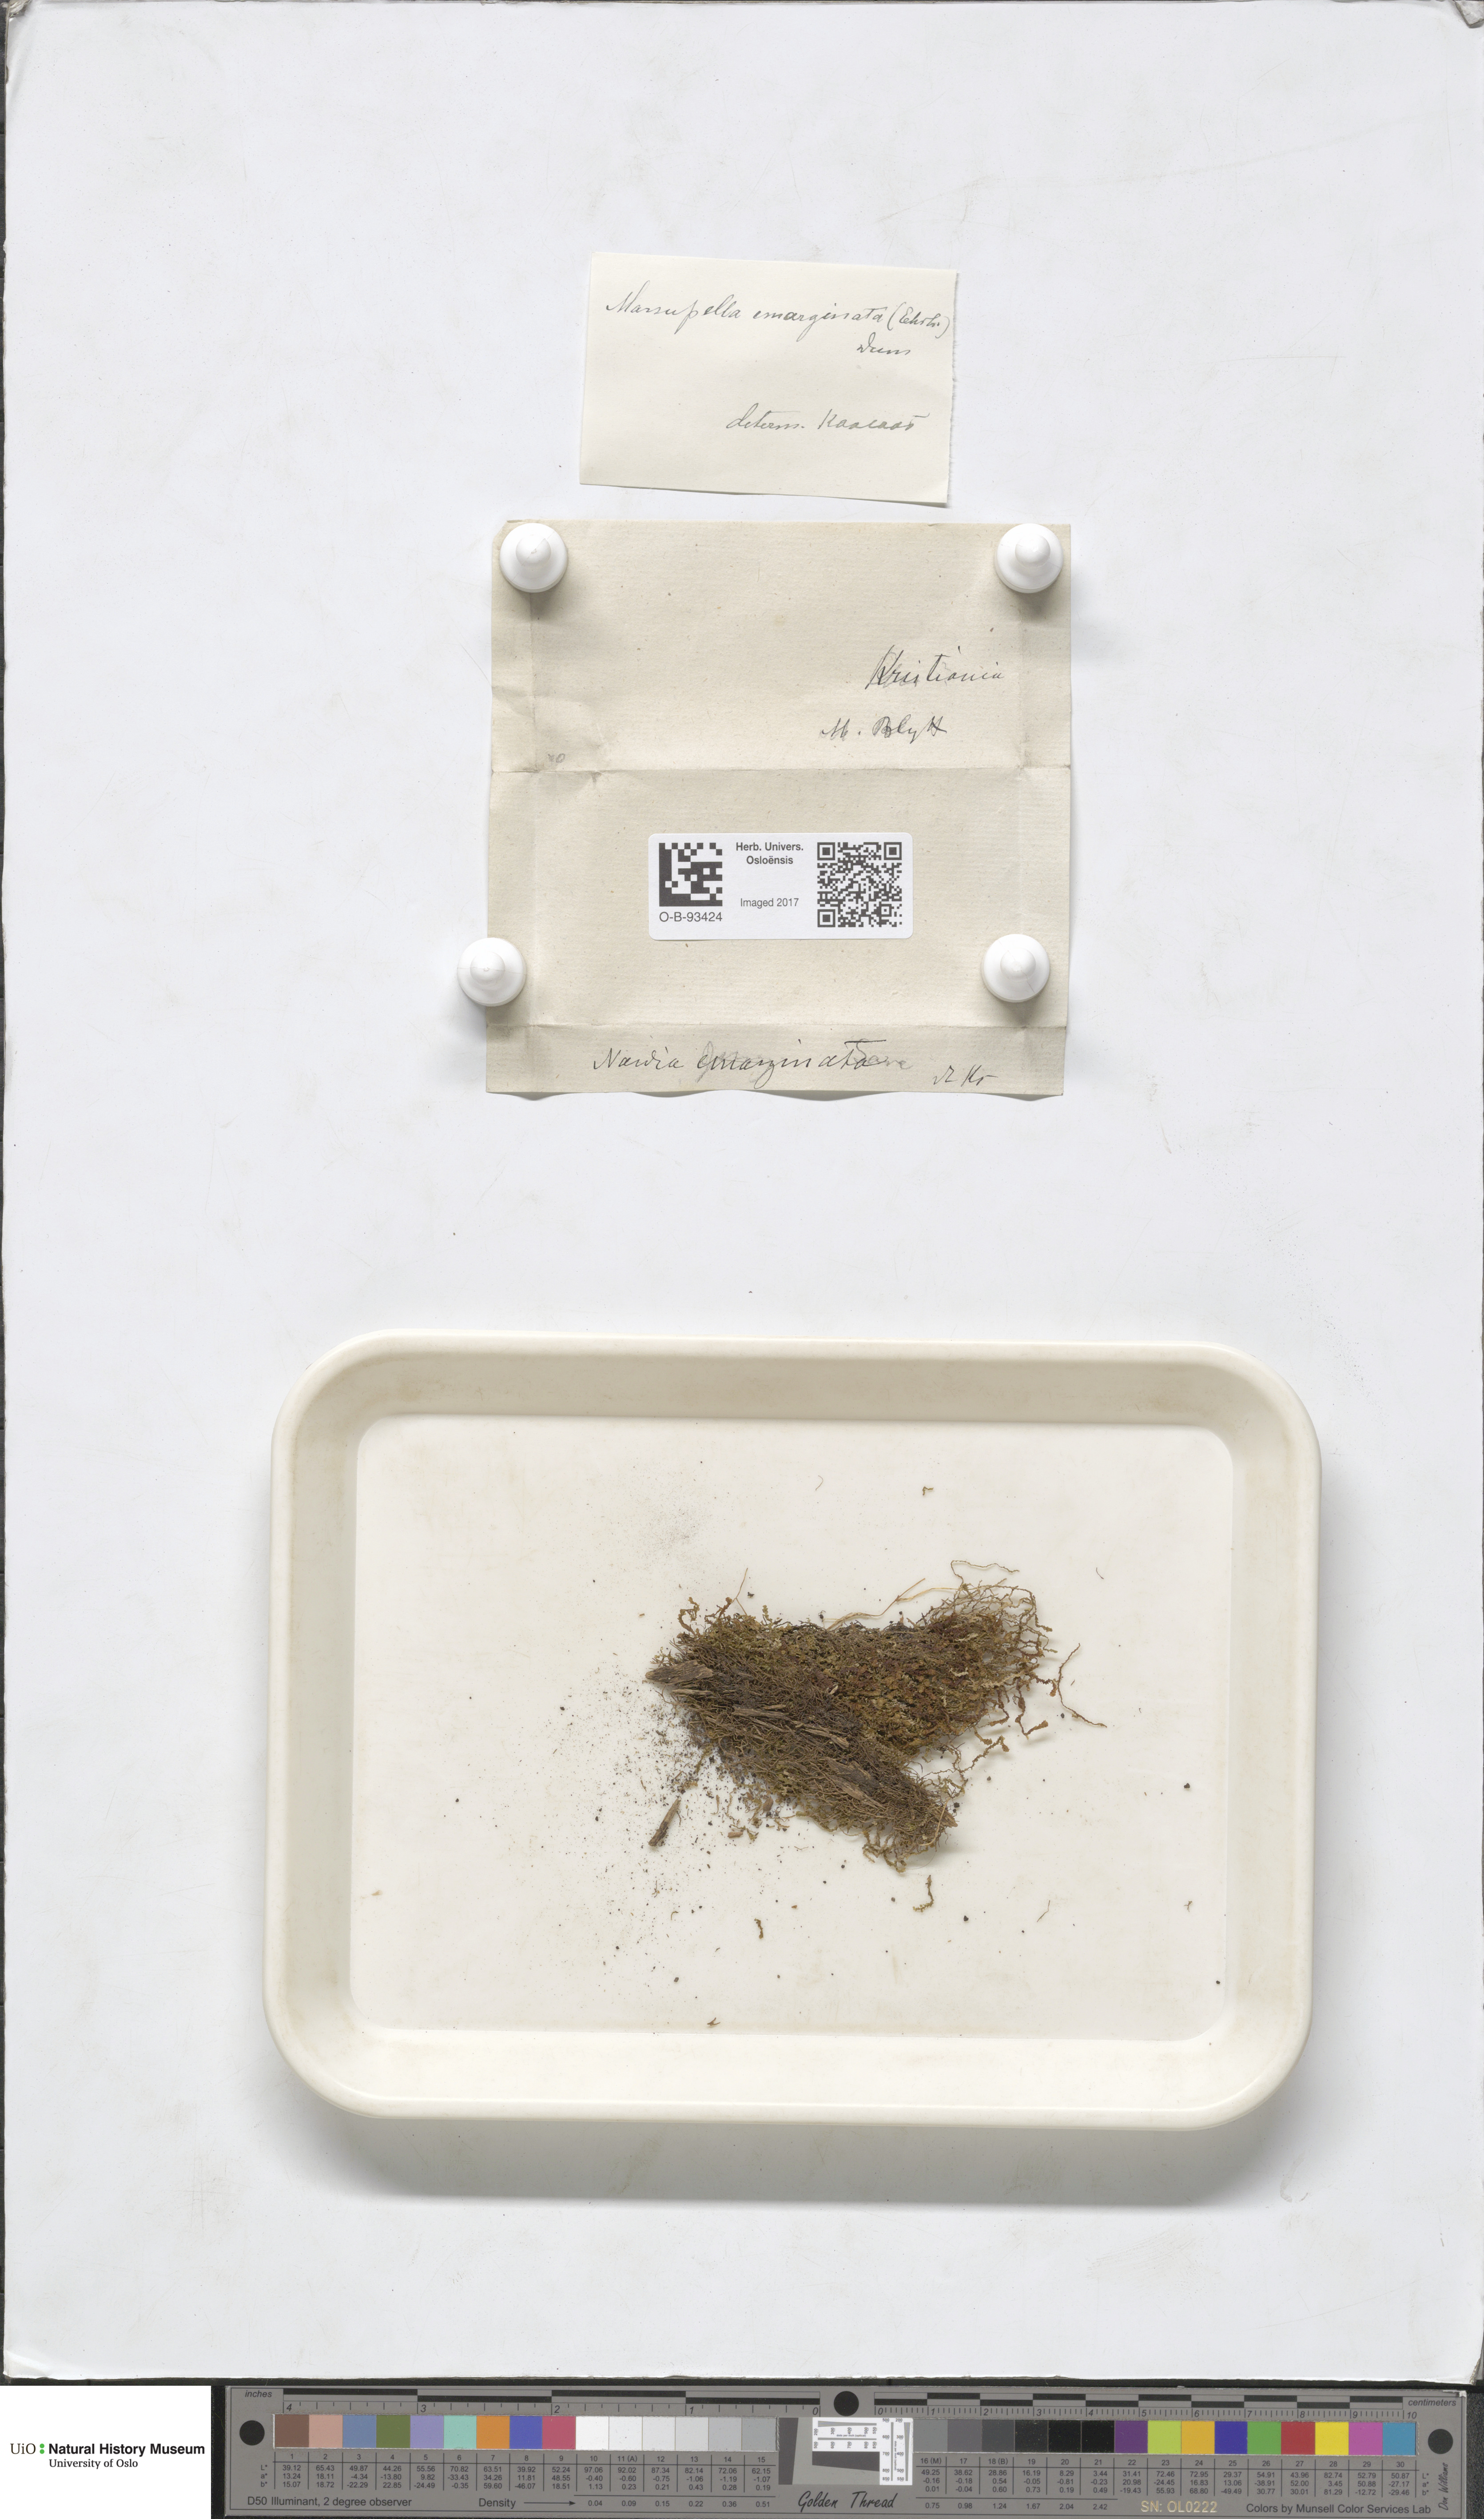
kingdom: Plantae
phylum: Marchantiophyta
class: Jungermanniopsida
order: Jungermanniales
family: Gymnomitriaceae
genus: Gymnomitrion
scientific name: Gymnomitrion brevissimum
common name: Snow rustwort
